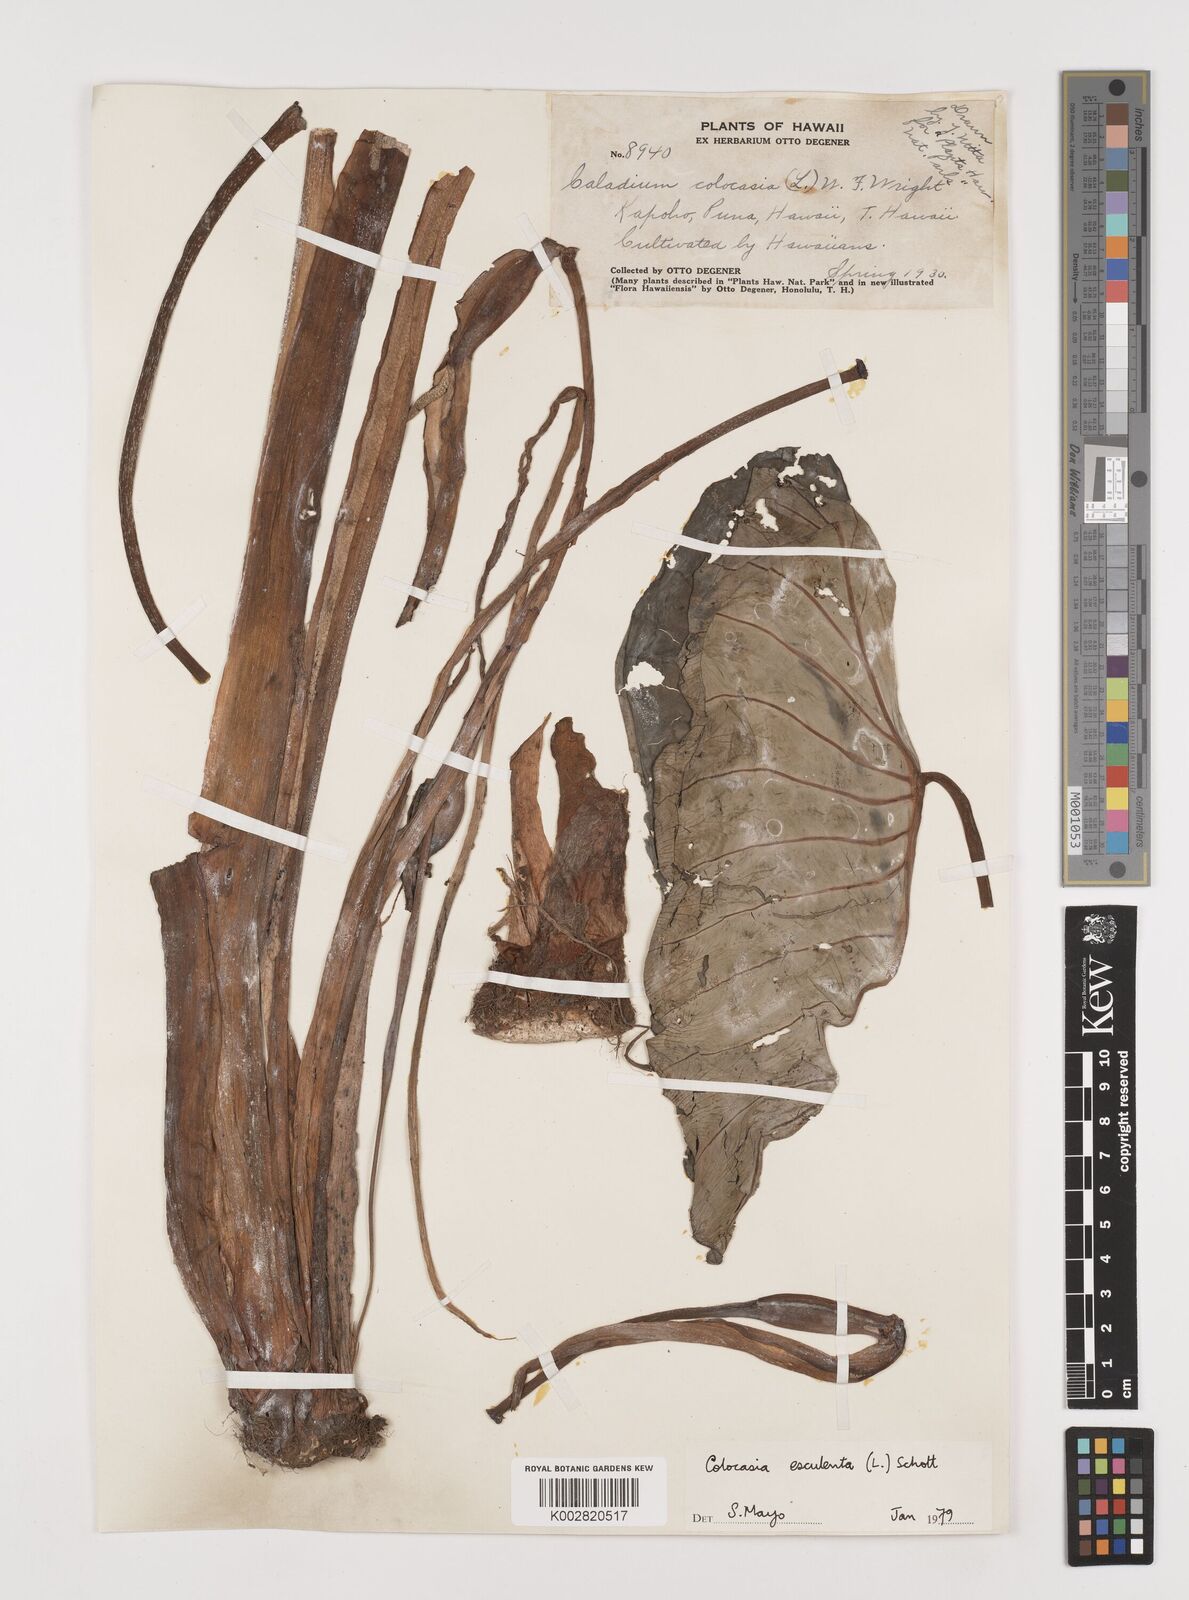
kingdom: Plantae
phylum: Tracheophyta
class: Liliopsida
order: Alismatales
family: Araceae
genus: Colocasia
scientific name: Colocasia esculenta
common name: Taro
